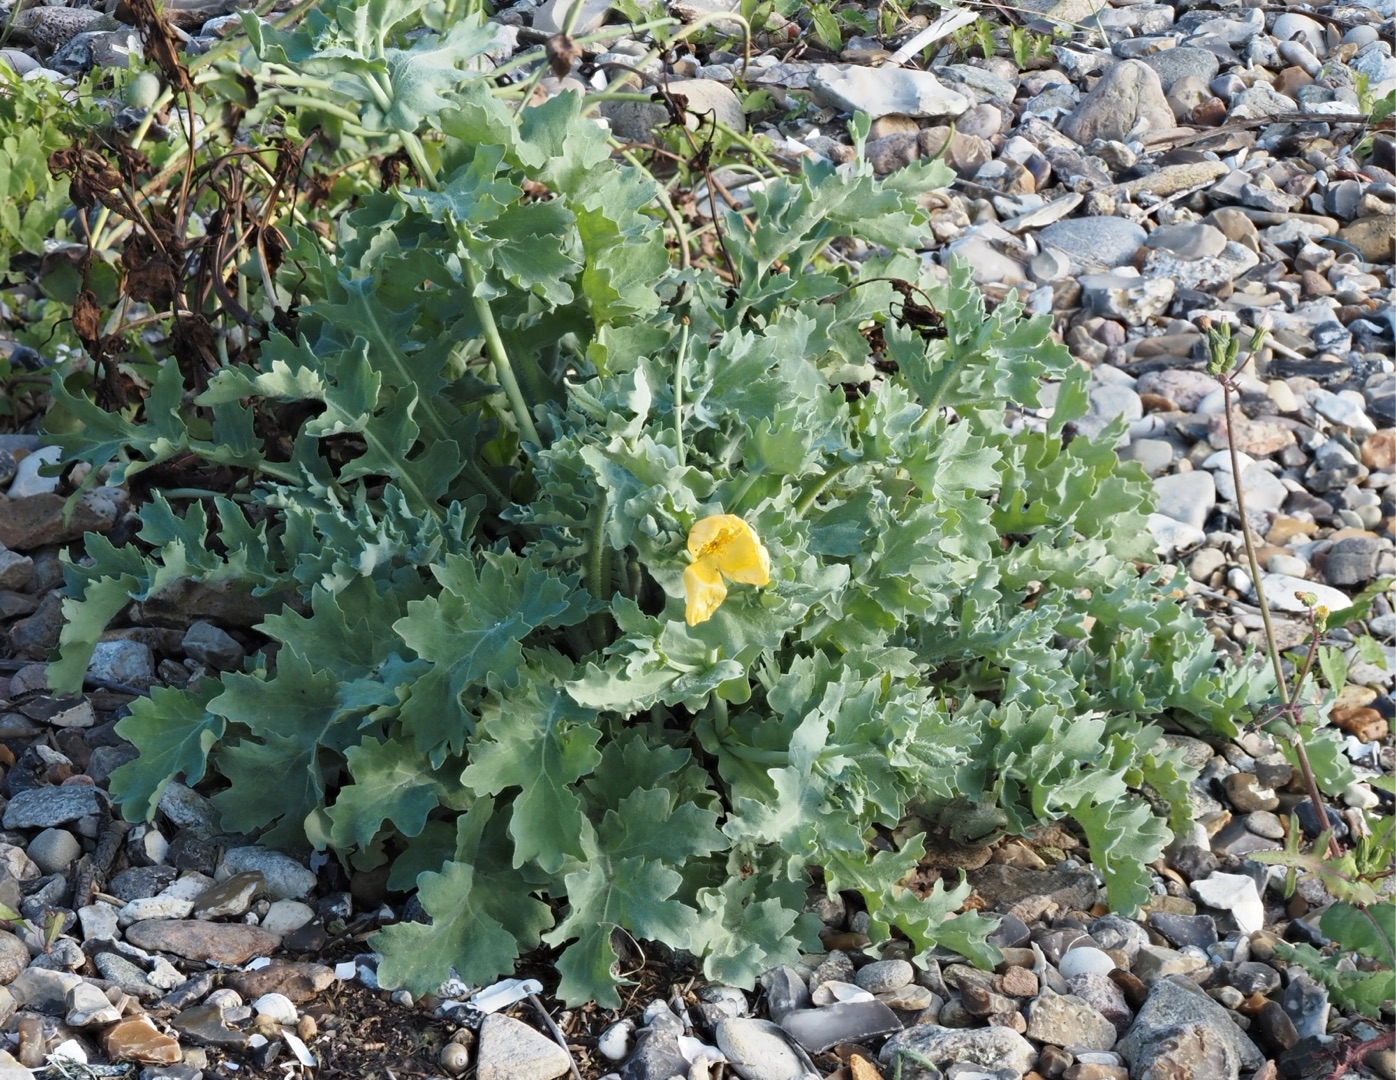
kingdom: Plantae
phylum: Tracheophyta
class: Magnoliopsida
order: Ranunculales
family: Papaveraceae
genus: Glaucium
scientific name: Glaucium flavum
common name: Hornskulpe
